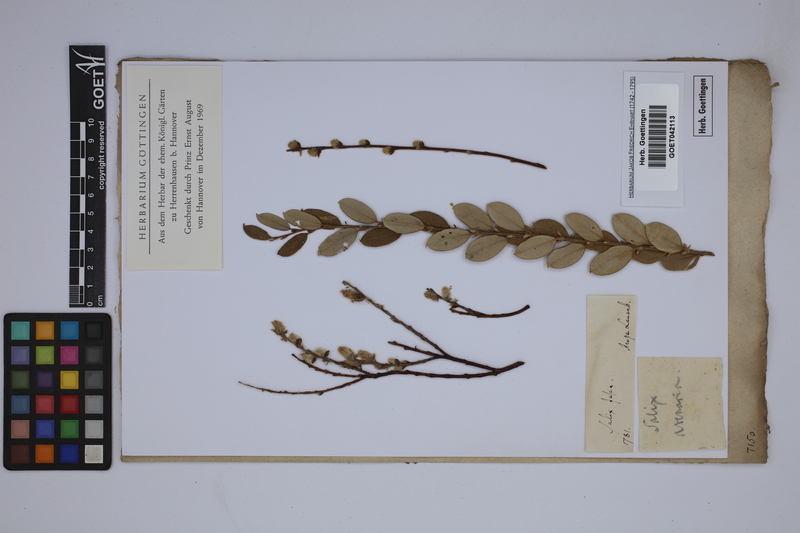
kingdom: Plantae
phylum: Tracheophyta
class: Magnoliopsida
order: Malpighiales
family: Salicaceae
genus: Salix
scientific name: Salix repens
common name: Creeping willow
